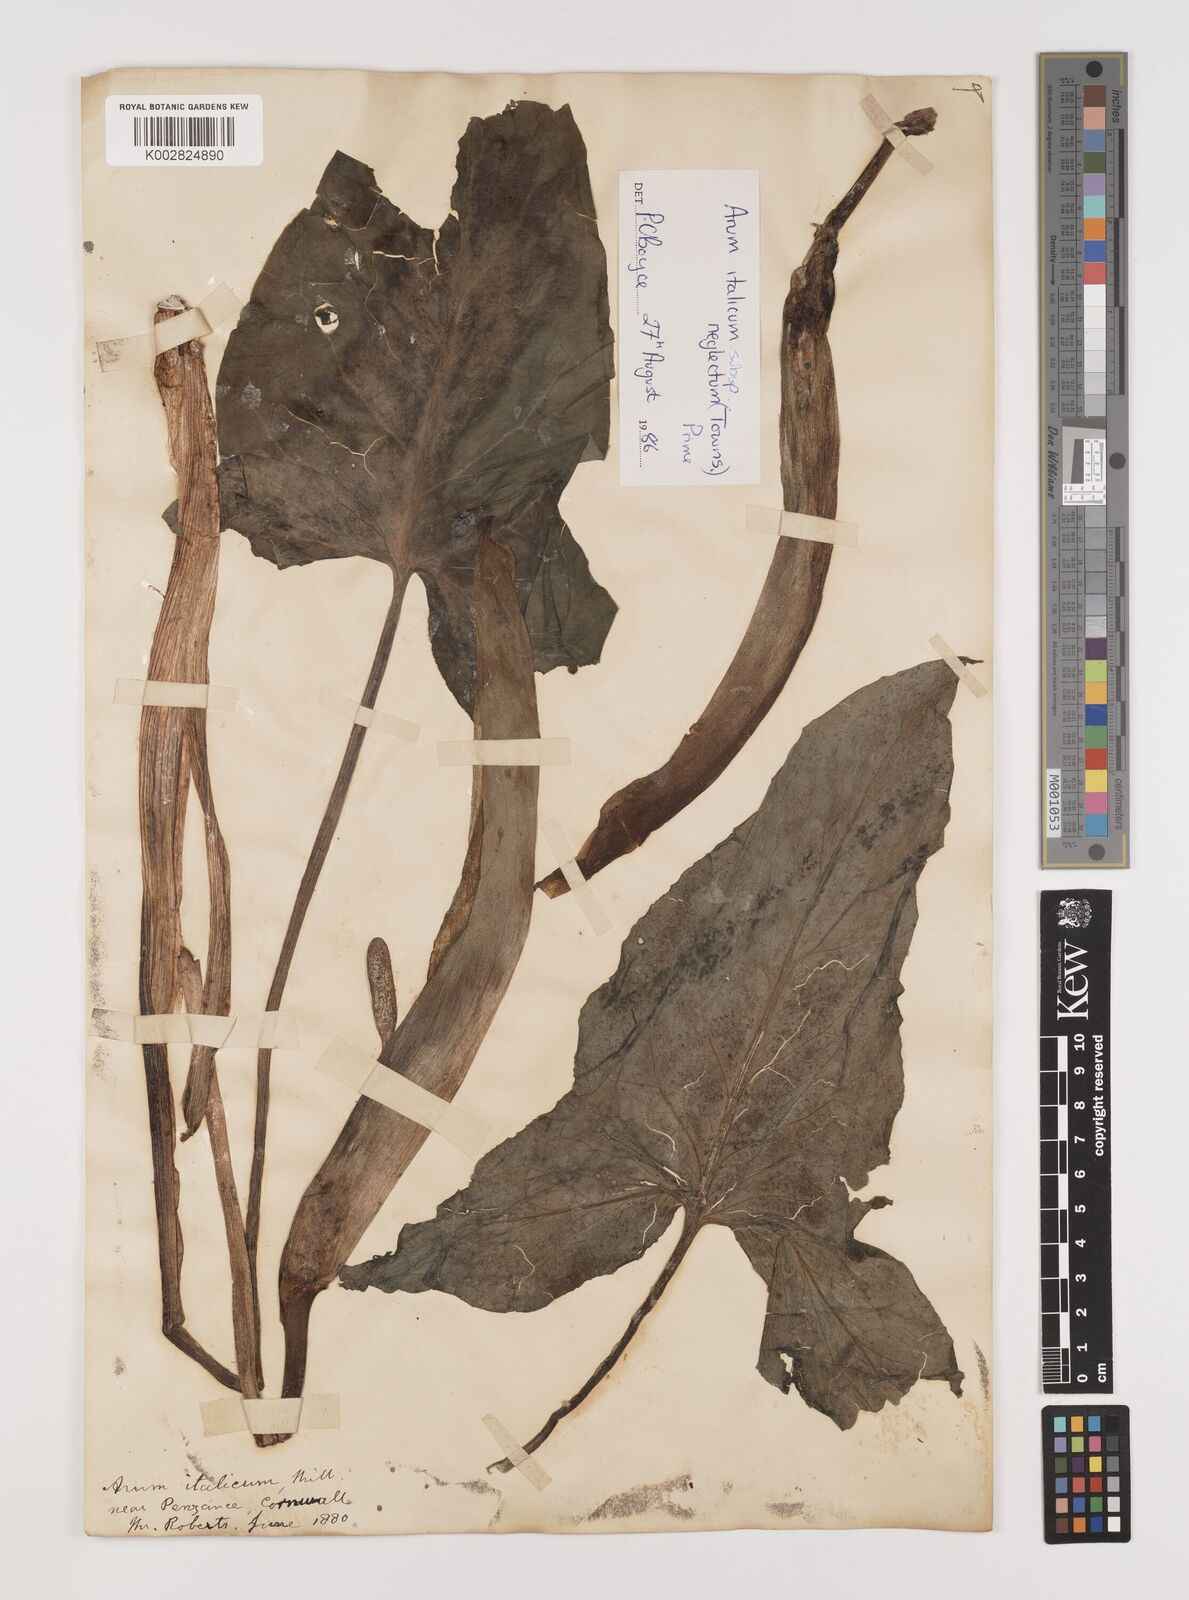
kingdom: Plantae
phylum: Tracheophyta
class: Liliopsida
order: Alismatales
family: Araceae
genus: Arum
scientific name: Arum italicum
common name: Italian lords-and-ladies
